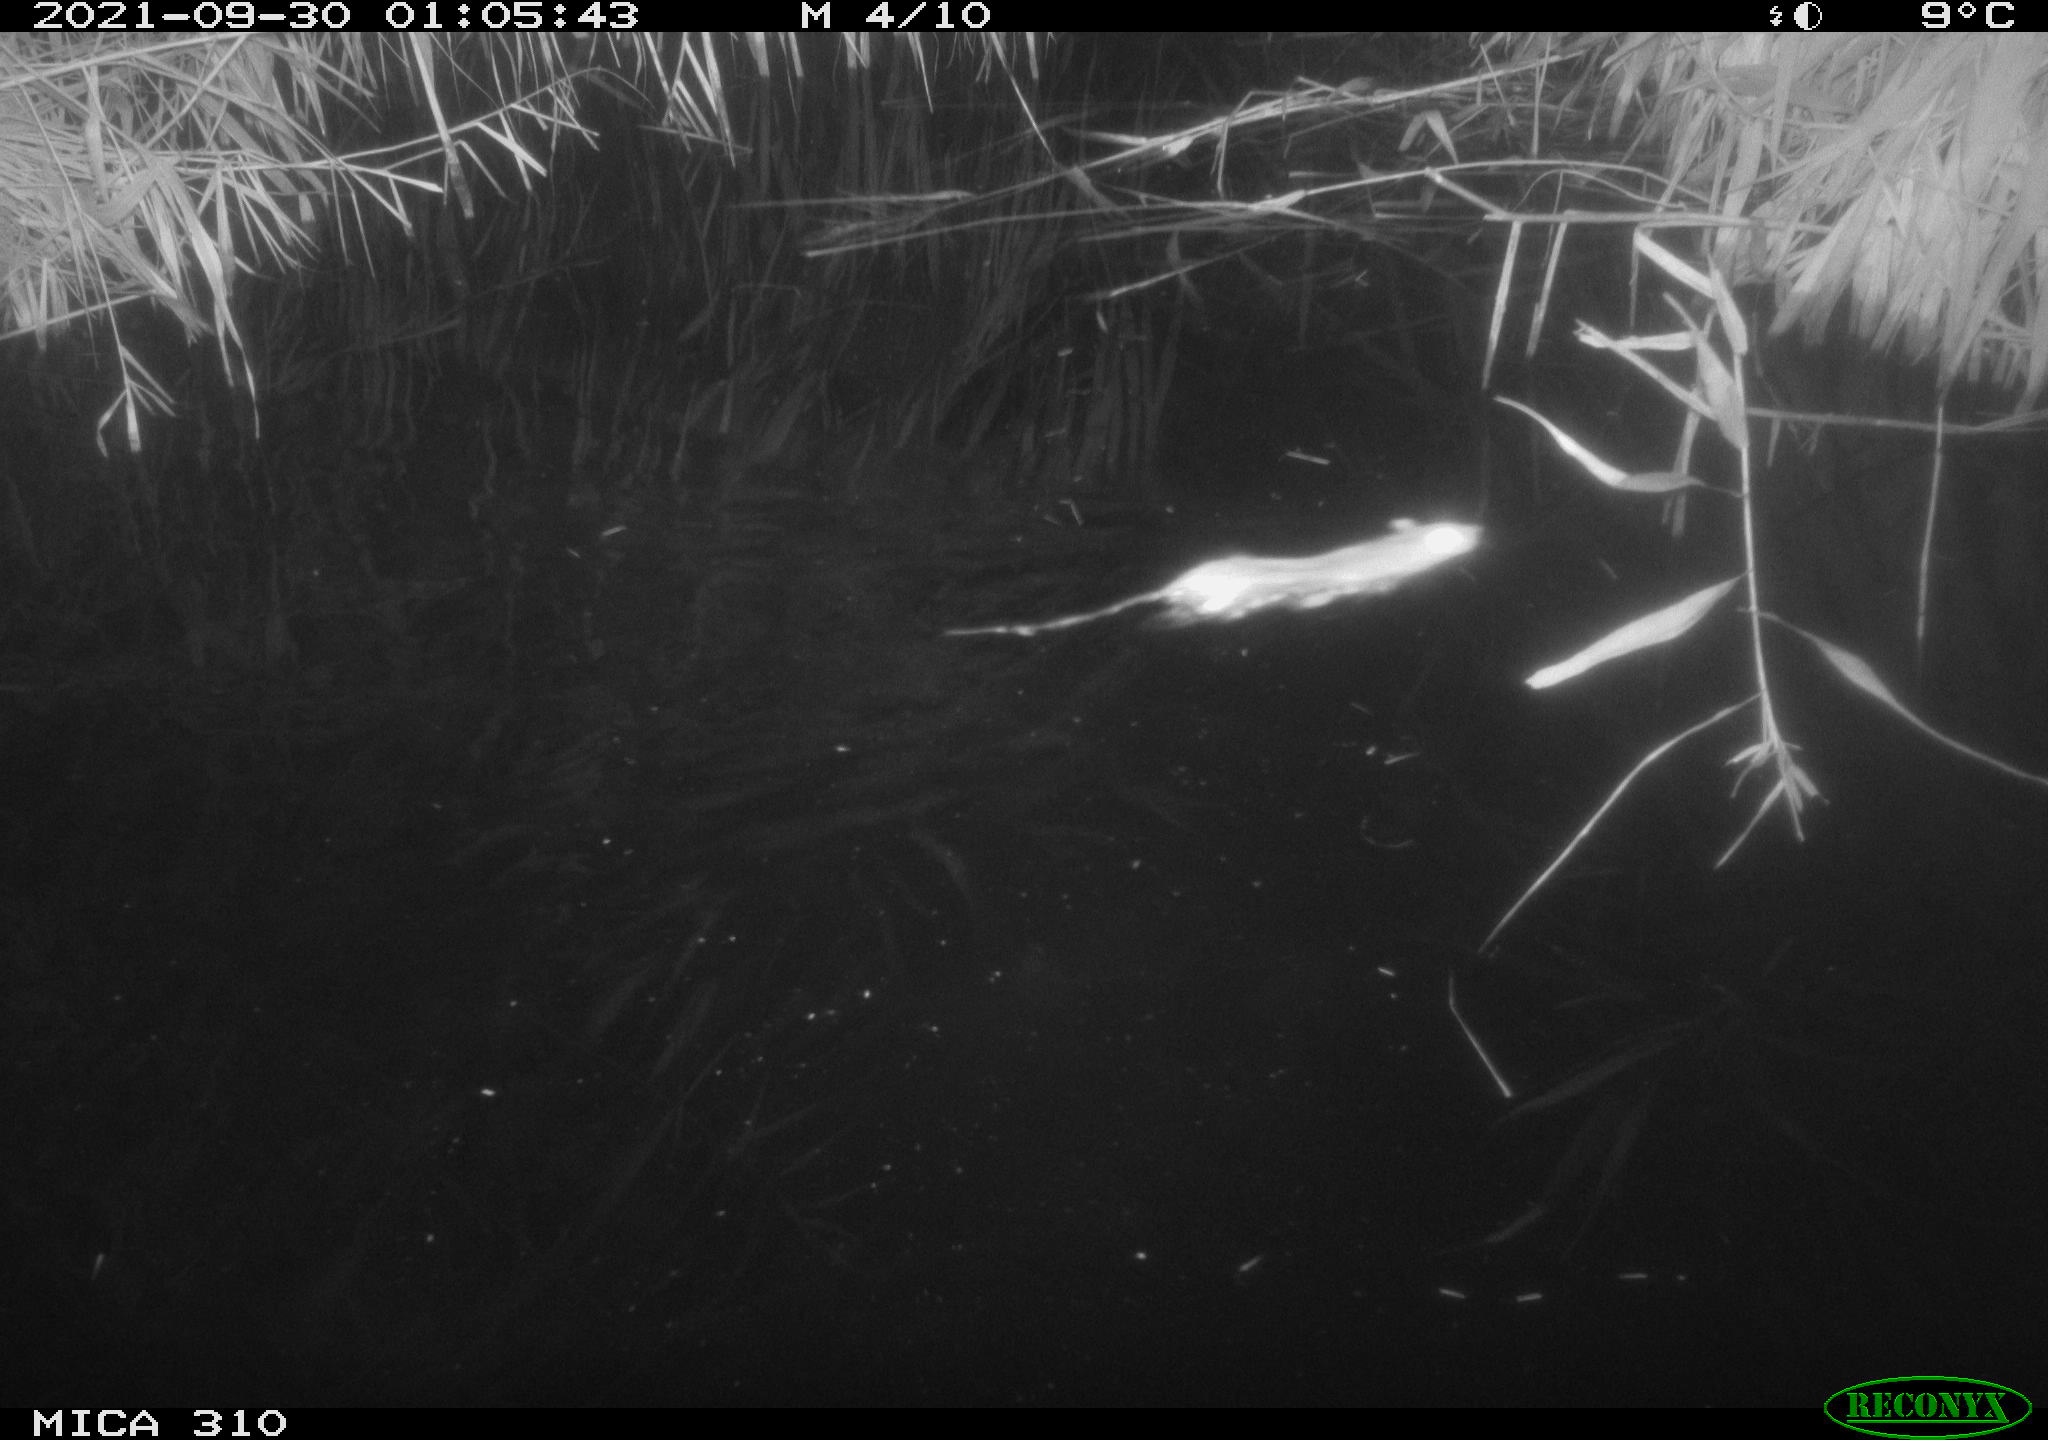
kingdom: Animalia
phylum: Chordata
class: Mammalia
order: Rodentia
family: Muridae
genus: Rattus
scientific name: Rattus norvegicus
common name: Brown rat
